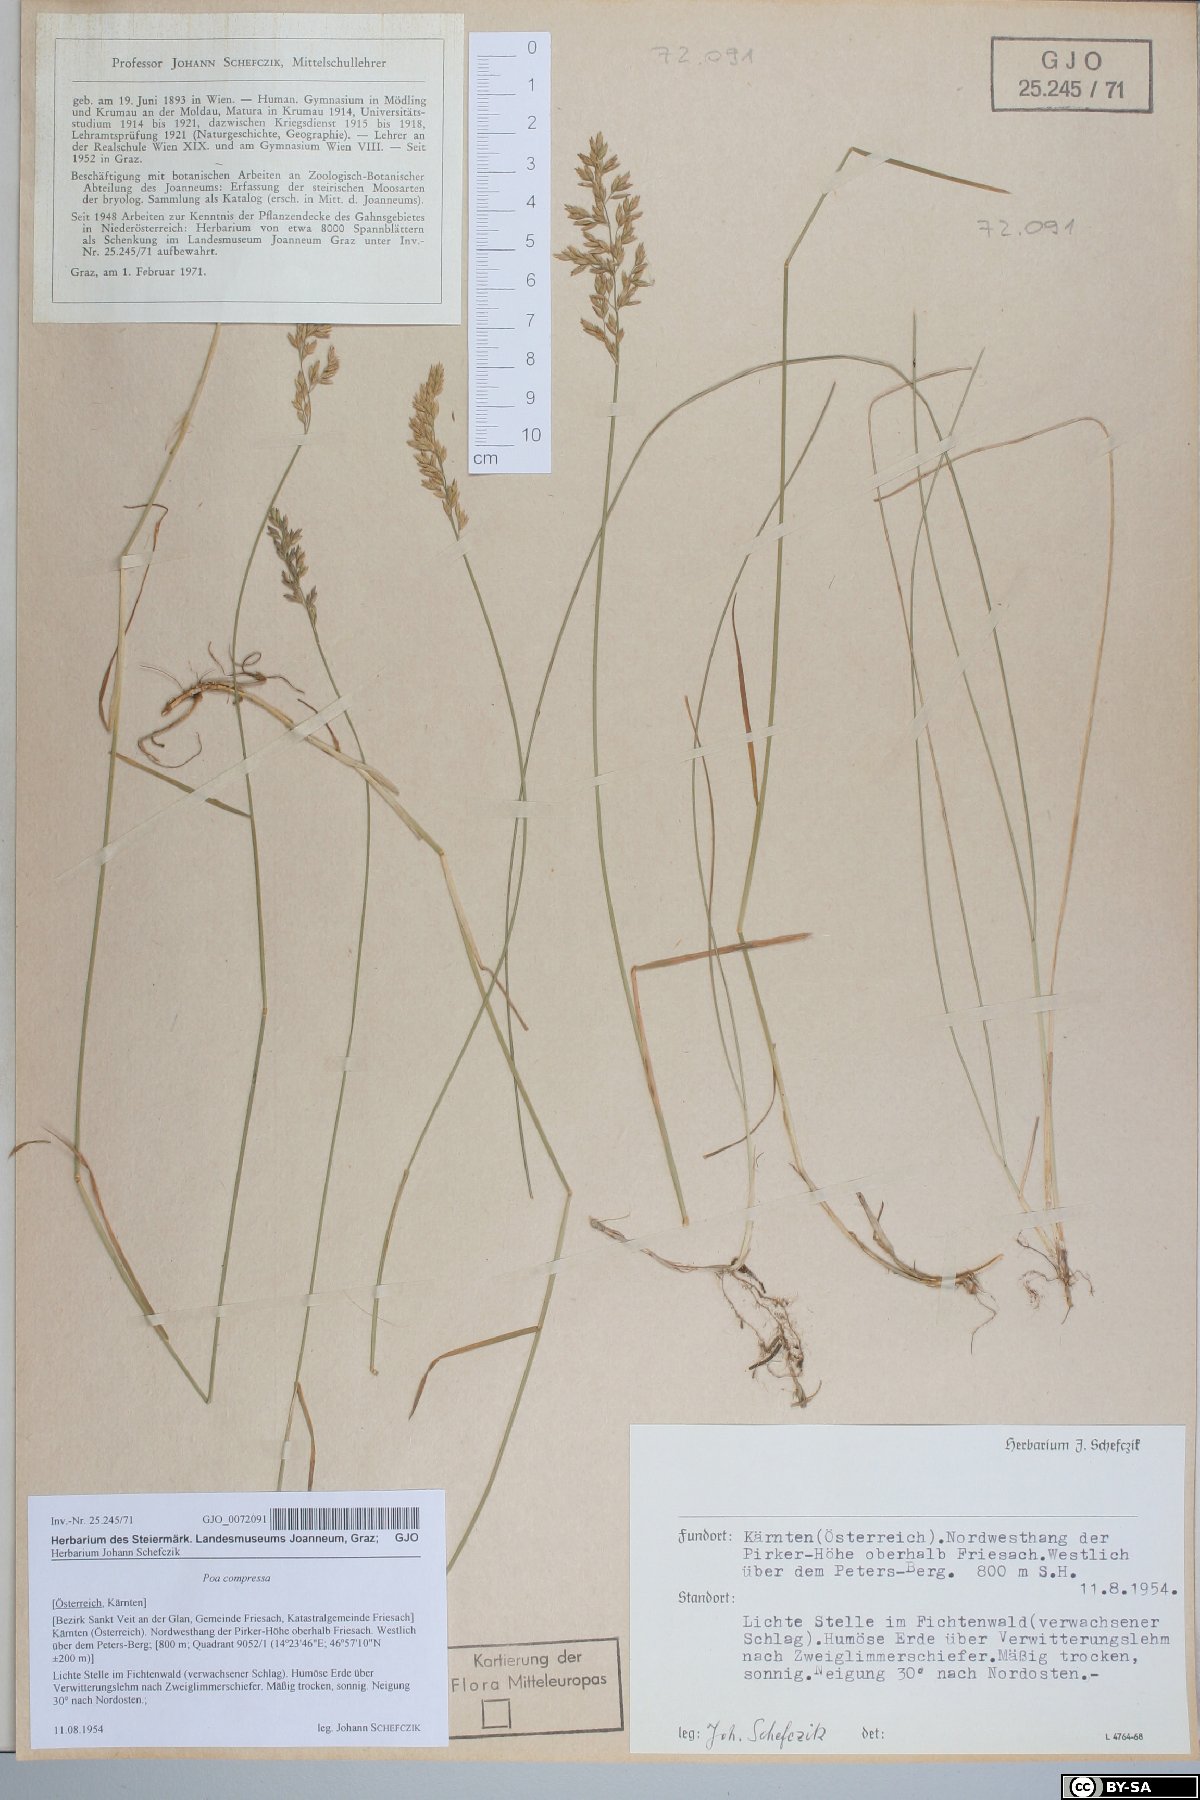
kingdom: Plantae
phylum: Tracheophyta
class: Liliopsida
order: Poales
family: Poaceae
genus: Poa
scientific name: Poa compressa
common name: Canada bluegrass
